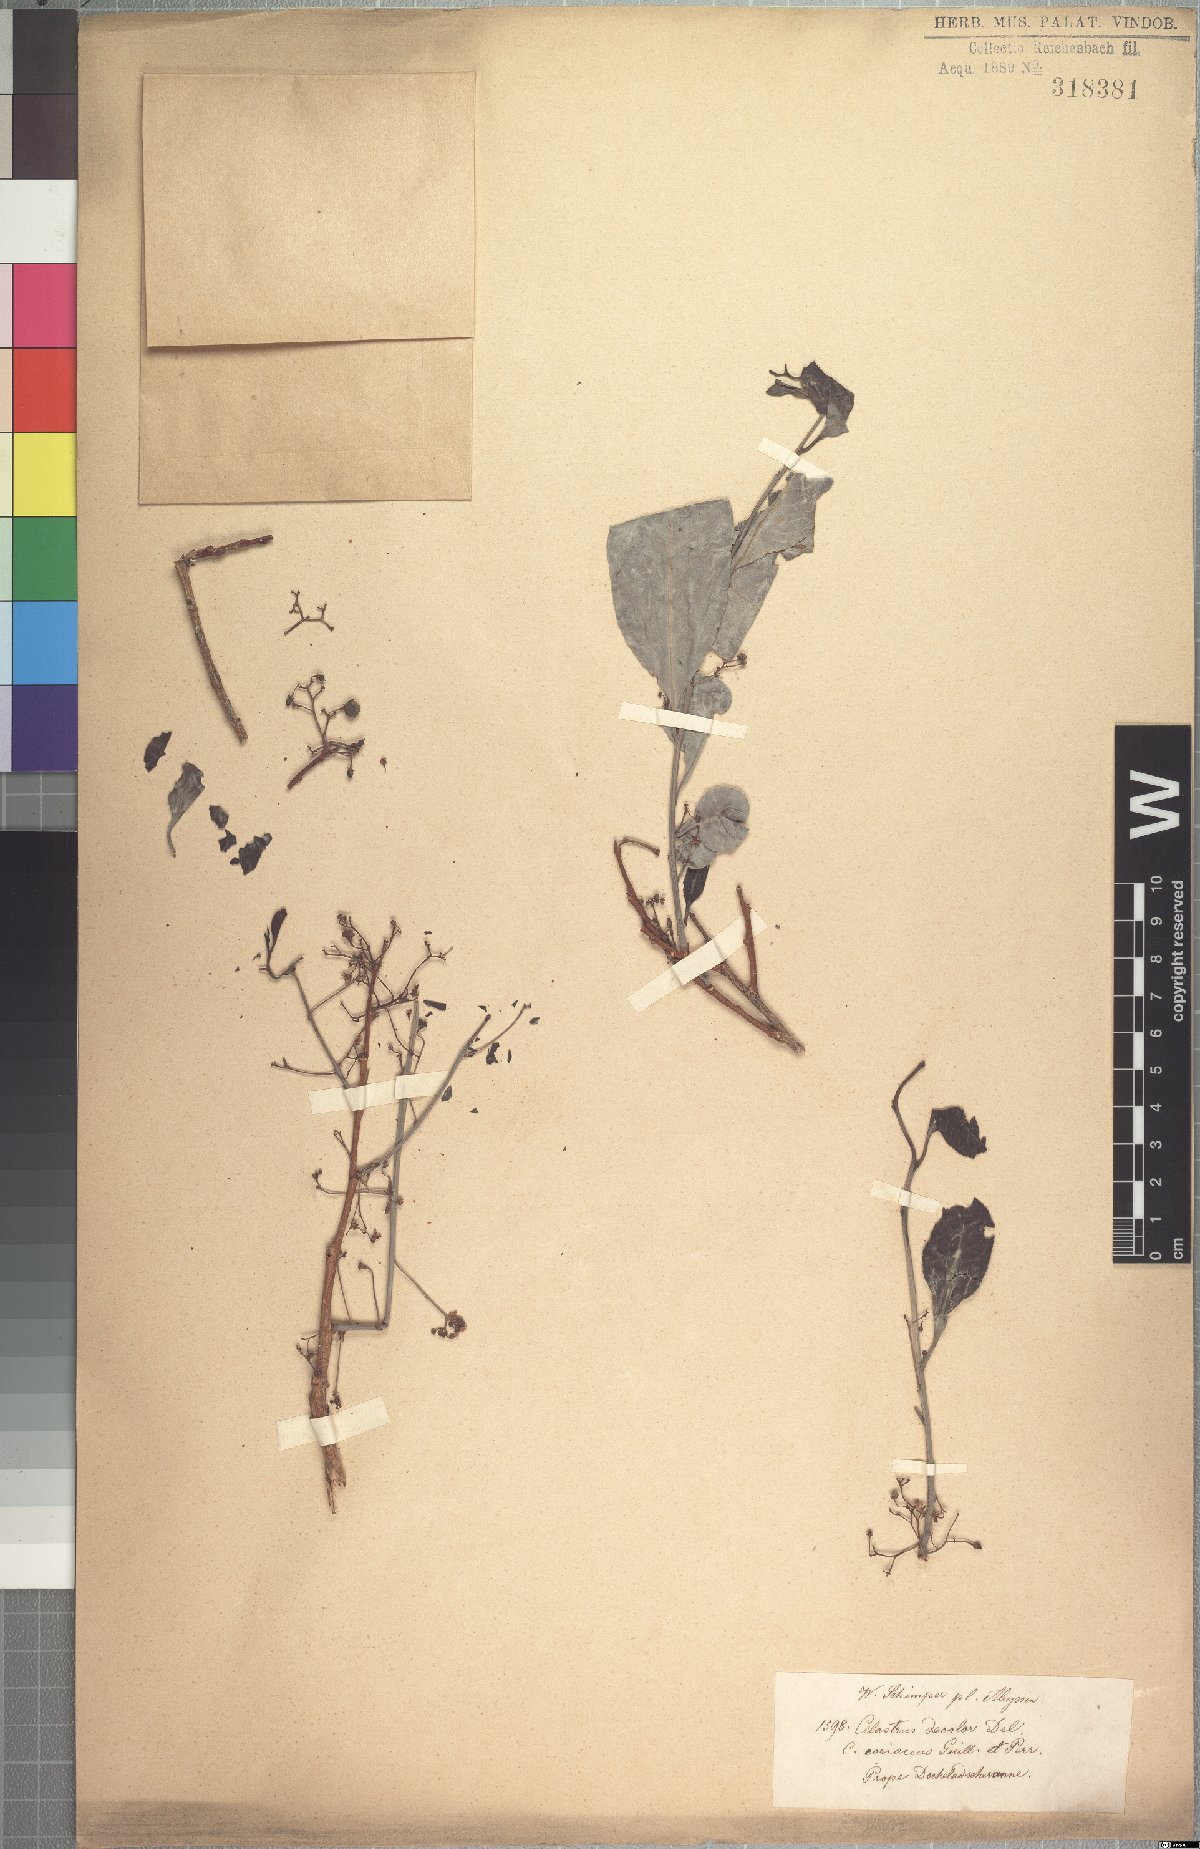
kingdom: Plantae
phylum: Tracheophyta
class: Magnoliopsida
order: Celastrales
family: Celastraceae
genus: Gymnosporia
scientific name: Gymnosporia senegalensis
